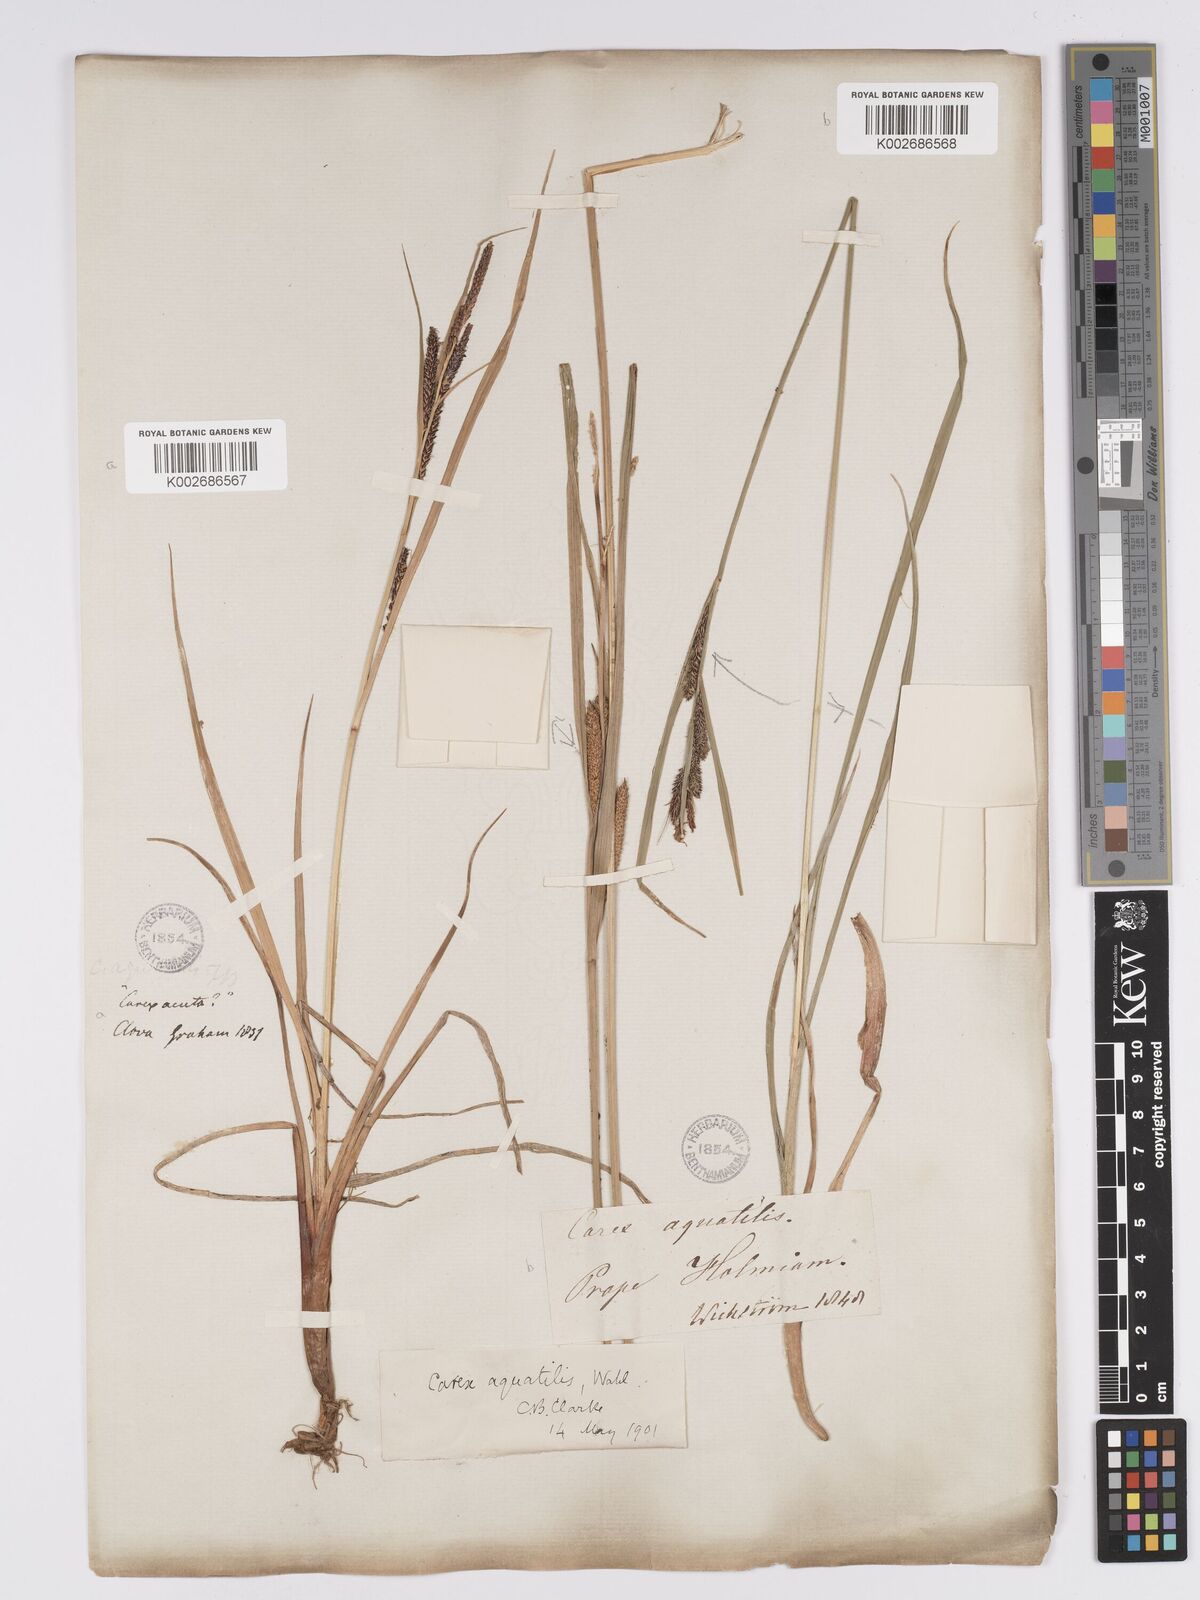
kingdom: Plantae
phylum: Tracheophyta
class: Liliopsida
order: Poales
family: Cyperaceae
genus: Carex
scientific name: Carex aquatilis
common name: Water sedge
